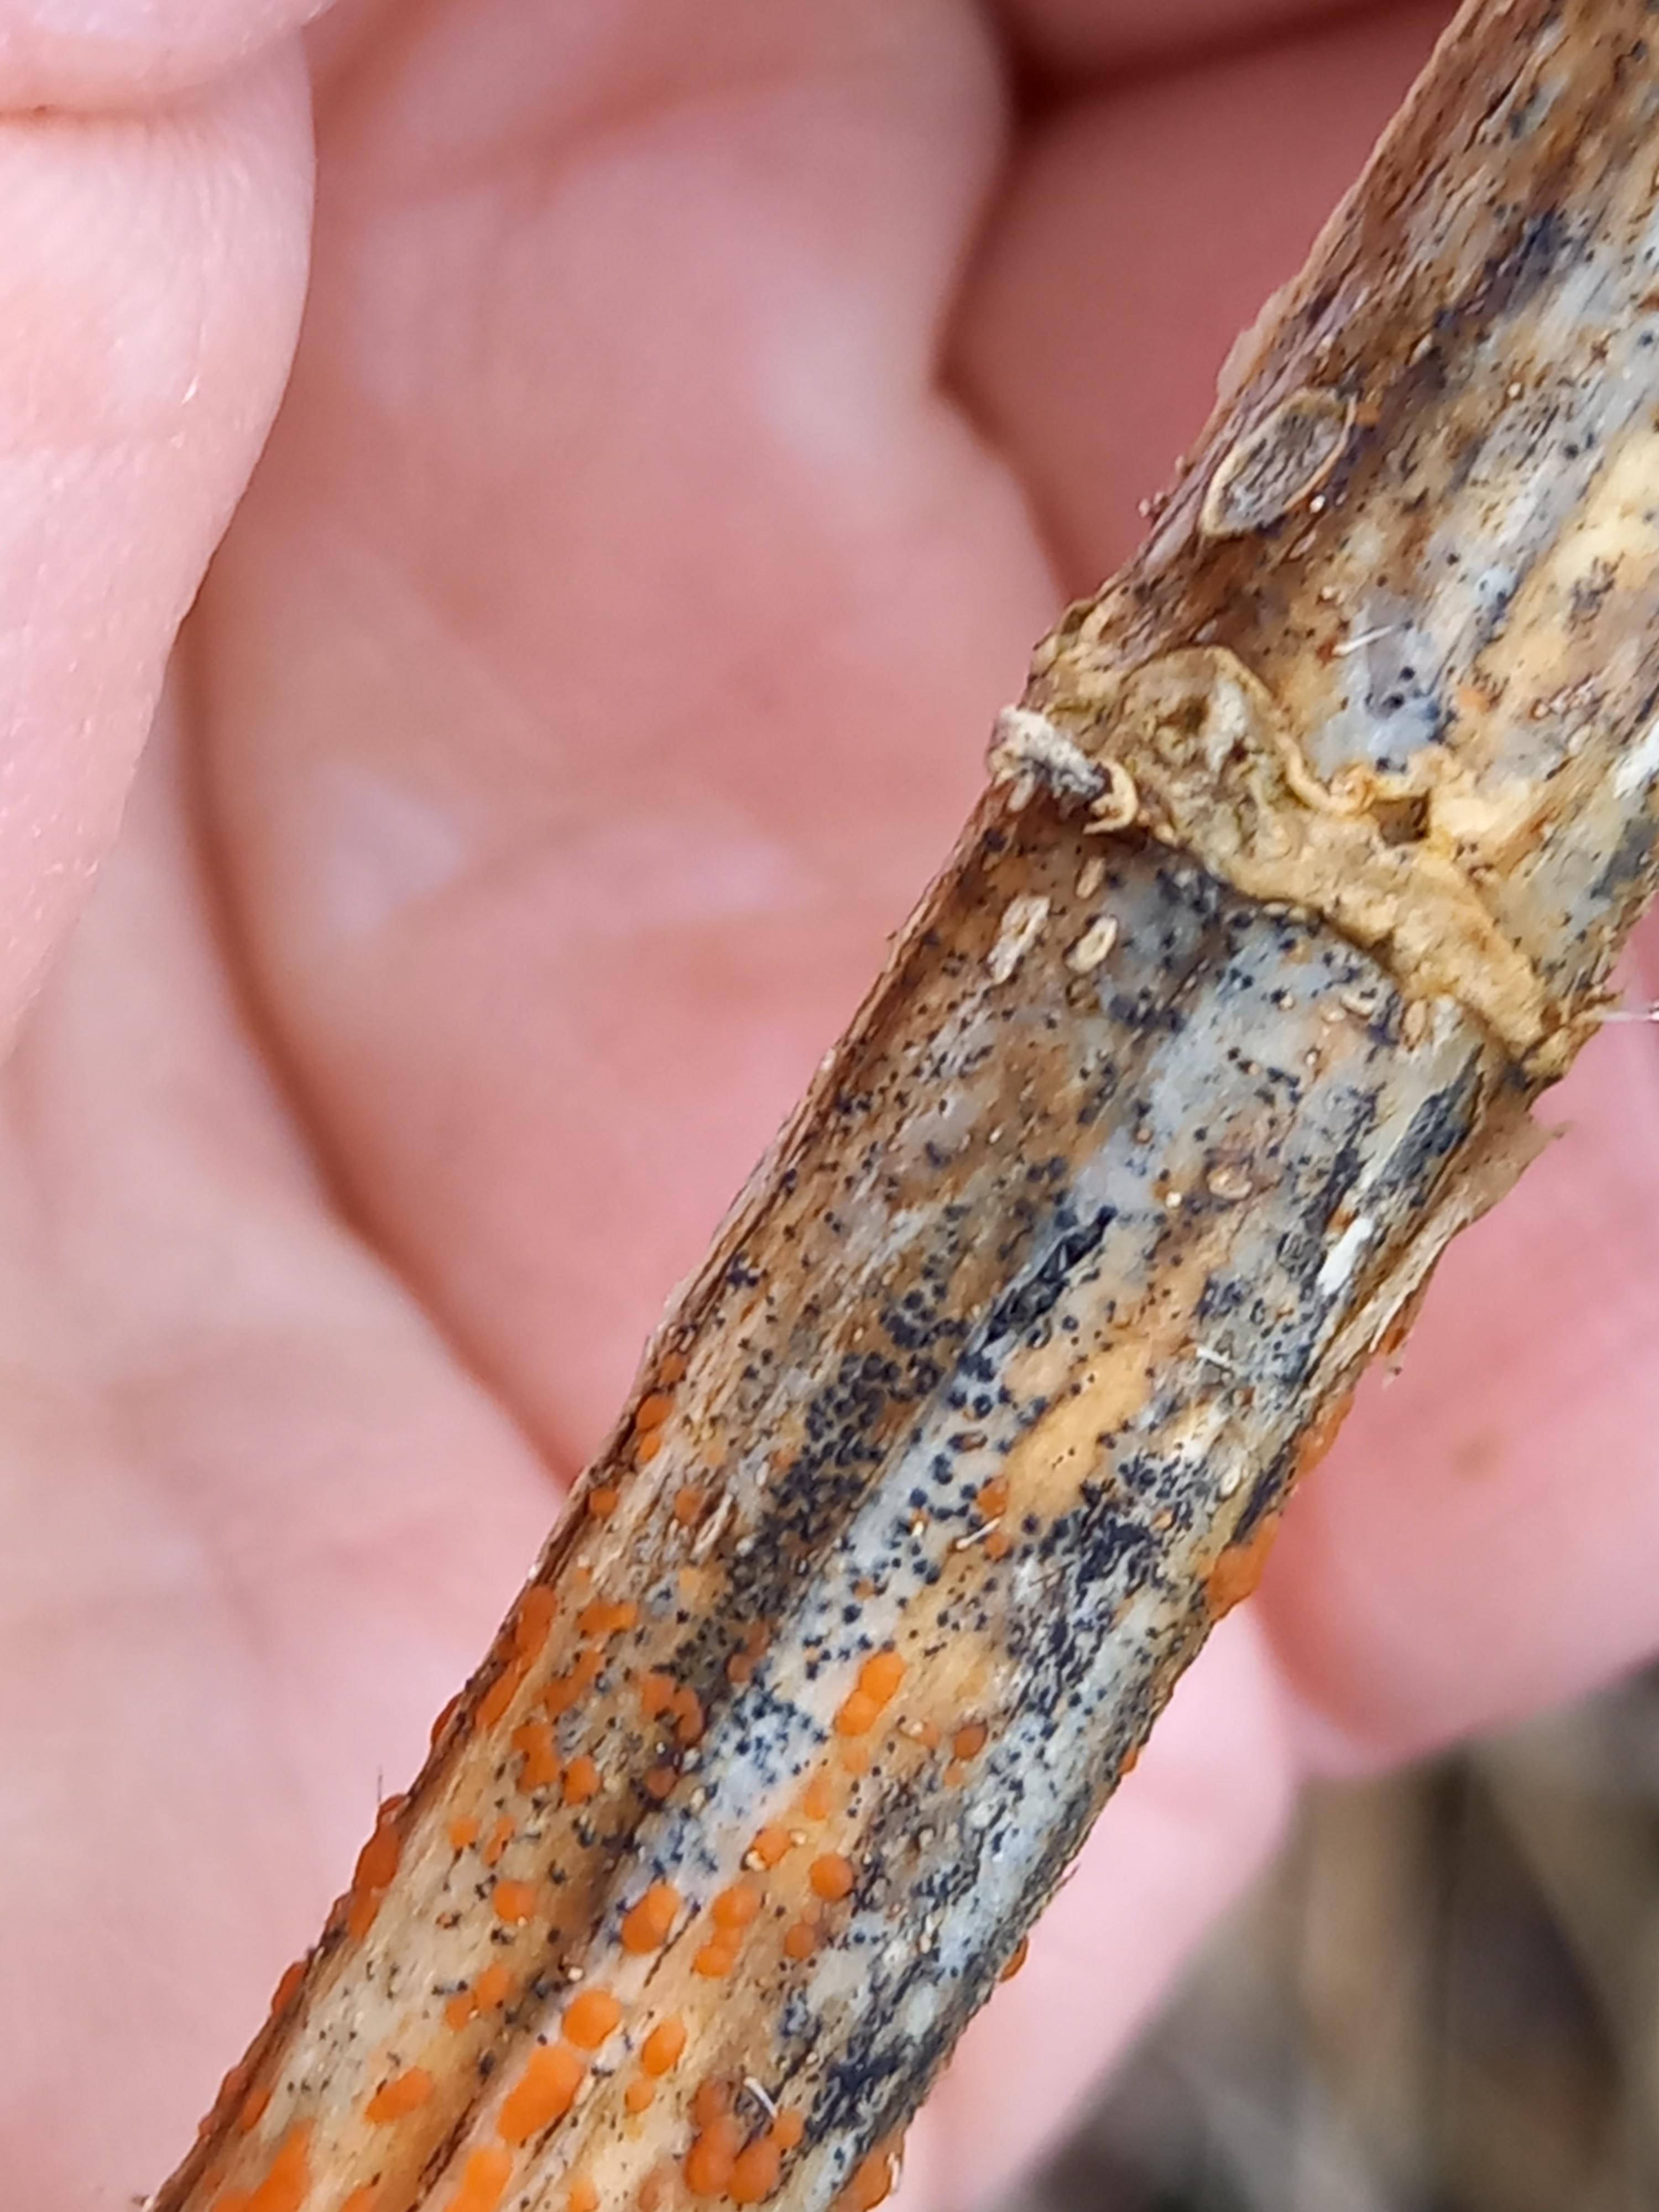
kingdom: Fungi
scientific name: Fungi
